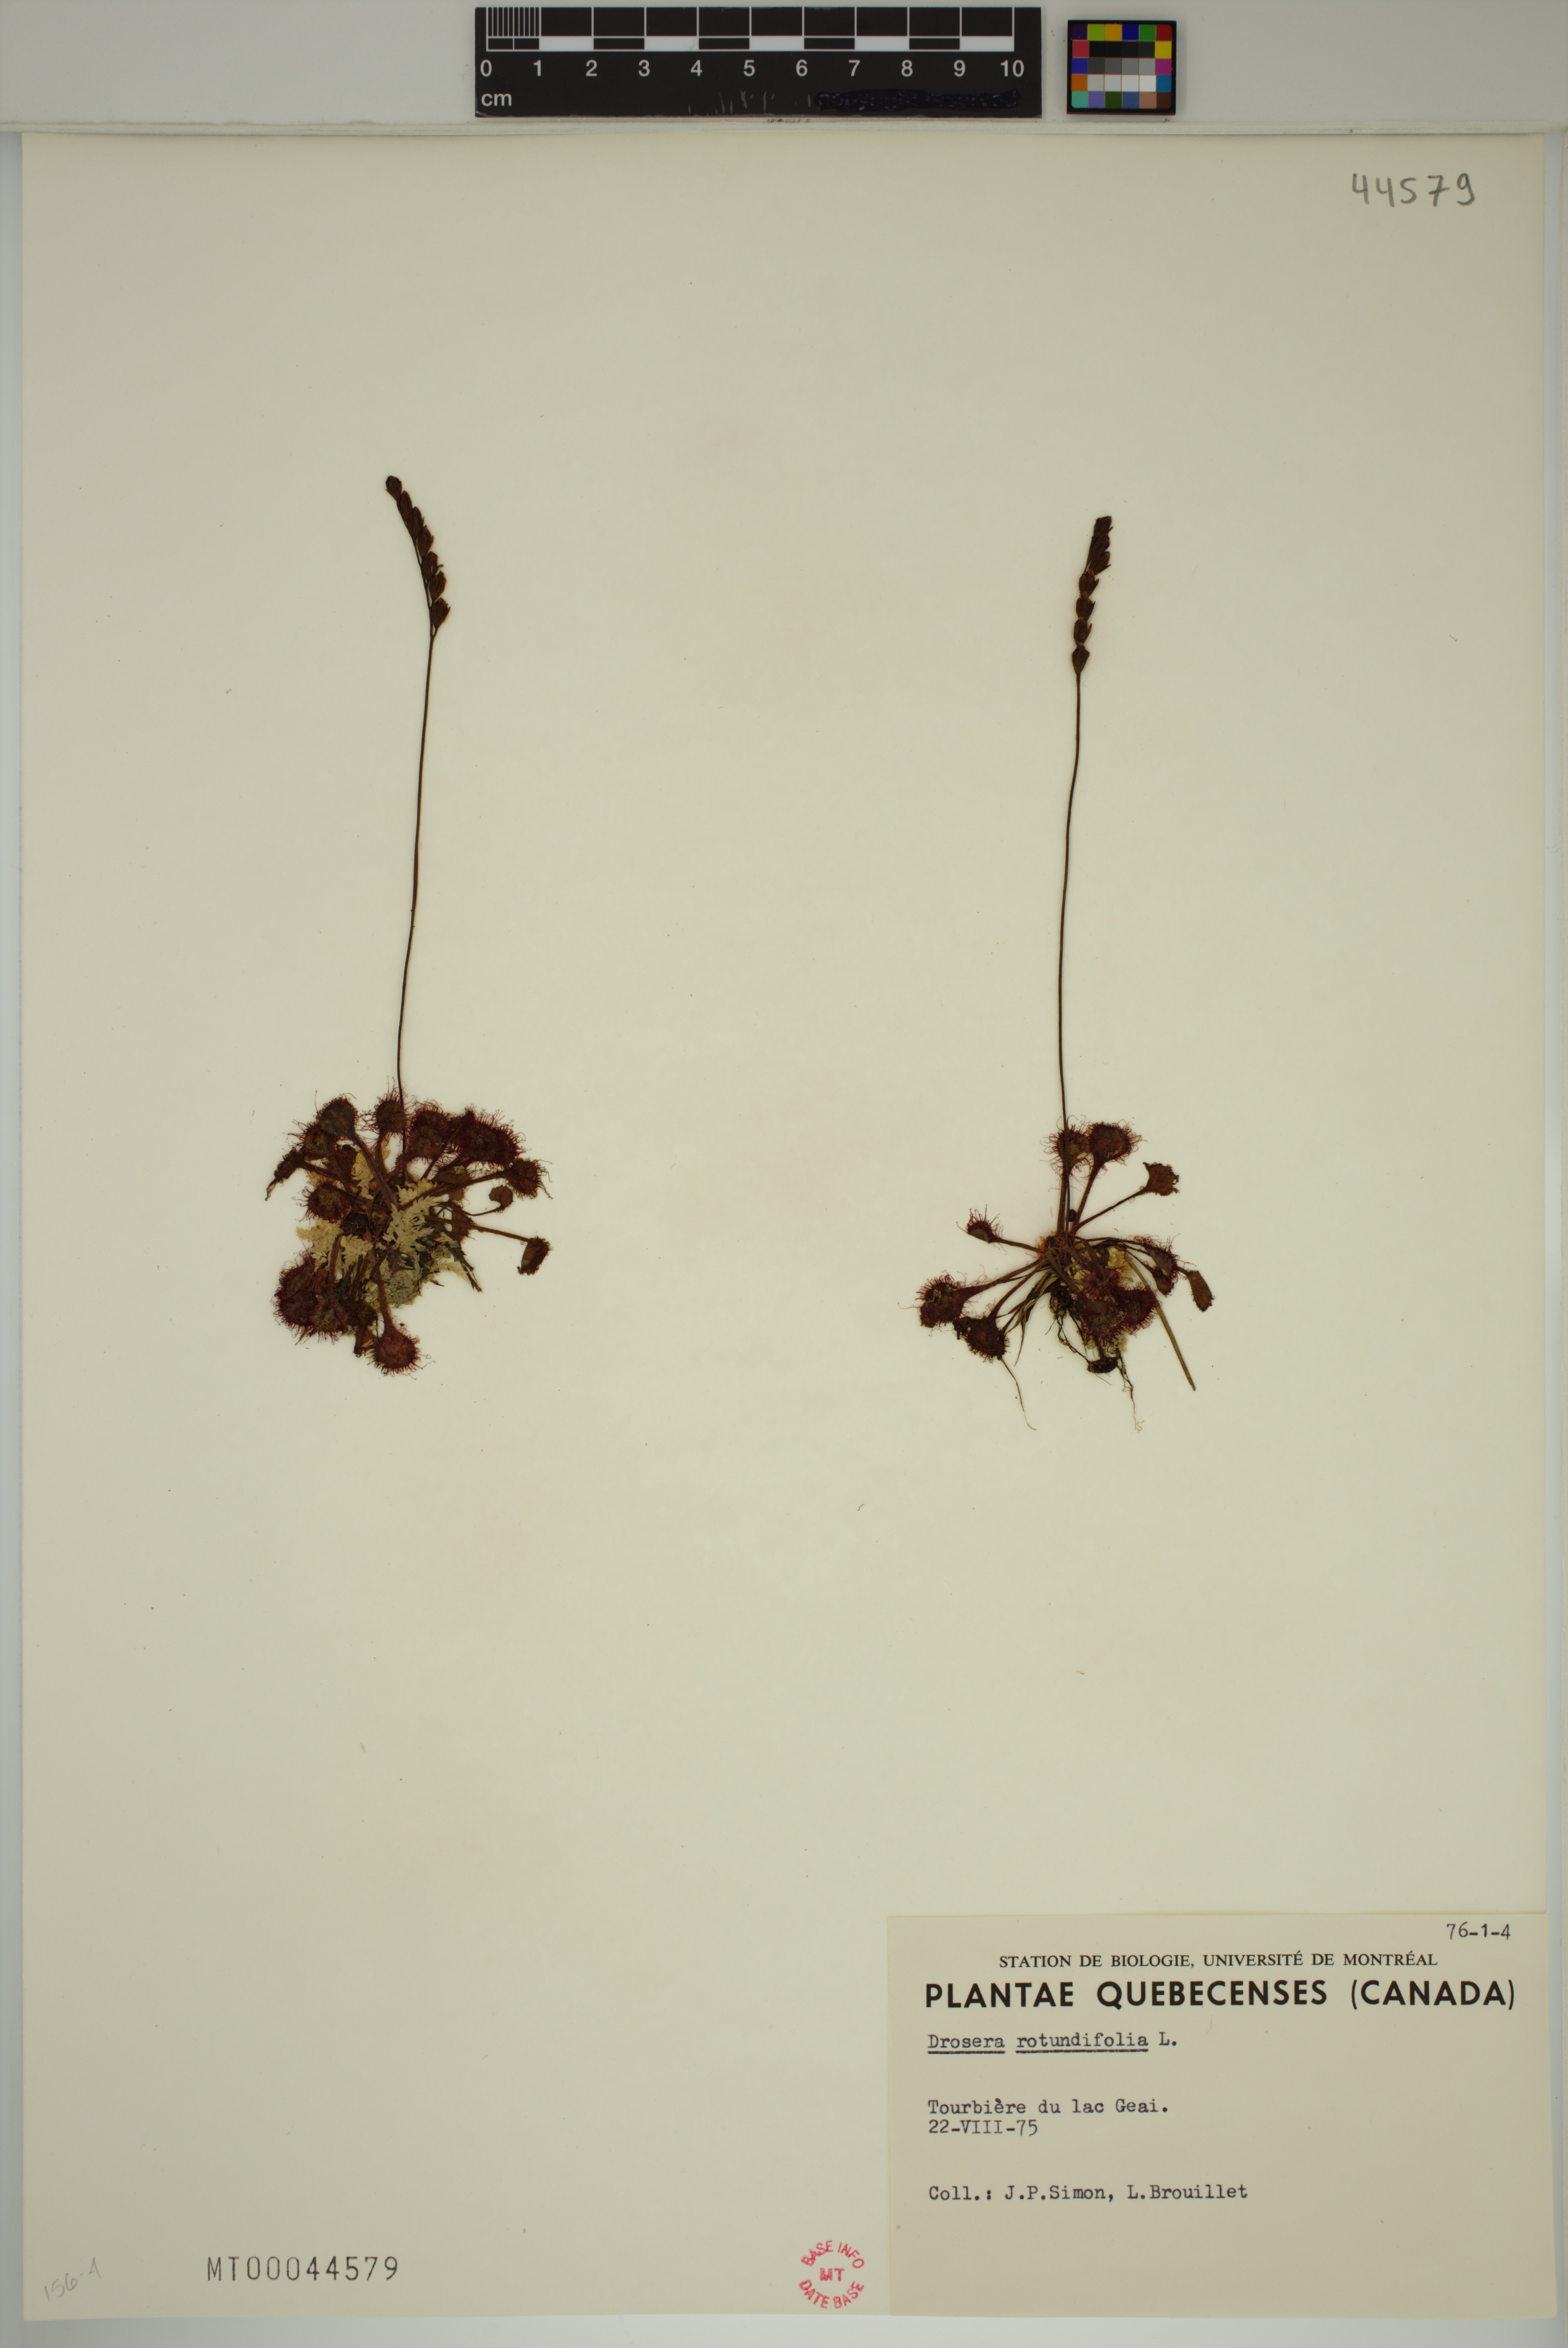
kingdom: Plantae
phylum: Tracheophyta
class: Magnoliopsida
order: Caryophyllales
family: Droseraceae
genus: Drosera
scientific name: Drosera rotundifolia
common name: Round-leaved sundew
